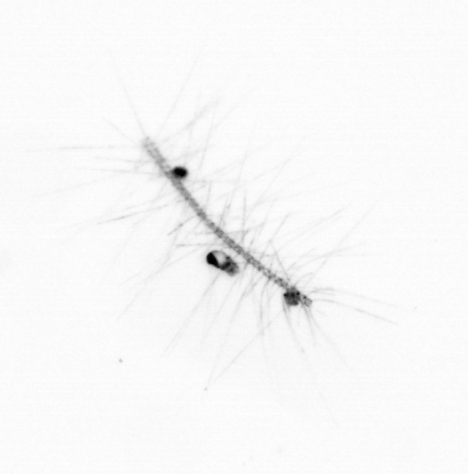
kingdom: Chromista
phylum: Ochrophyta
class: Bacillariophyceae
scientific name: Bacillariophyceae
